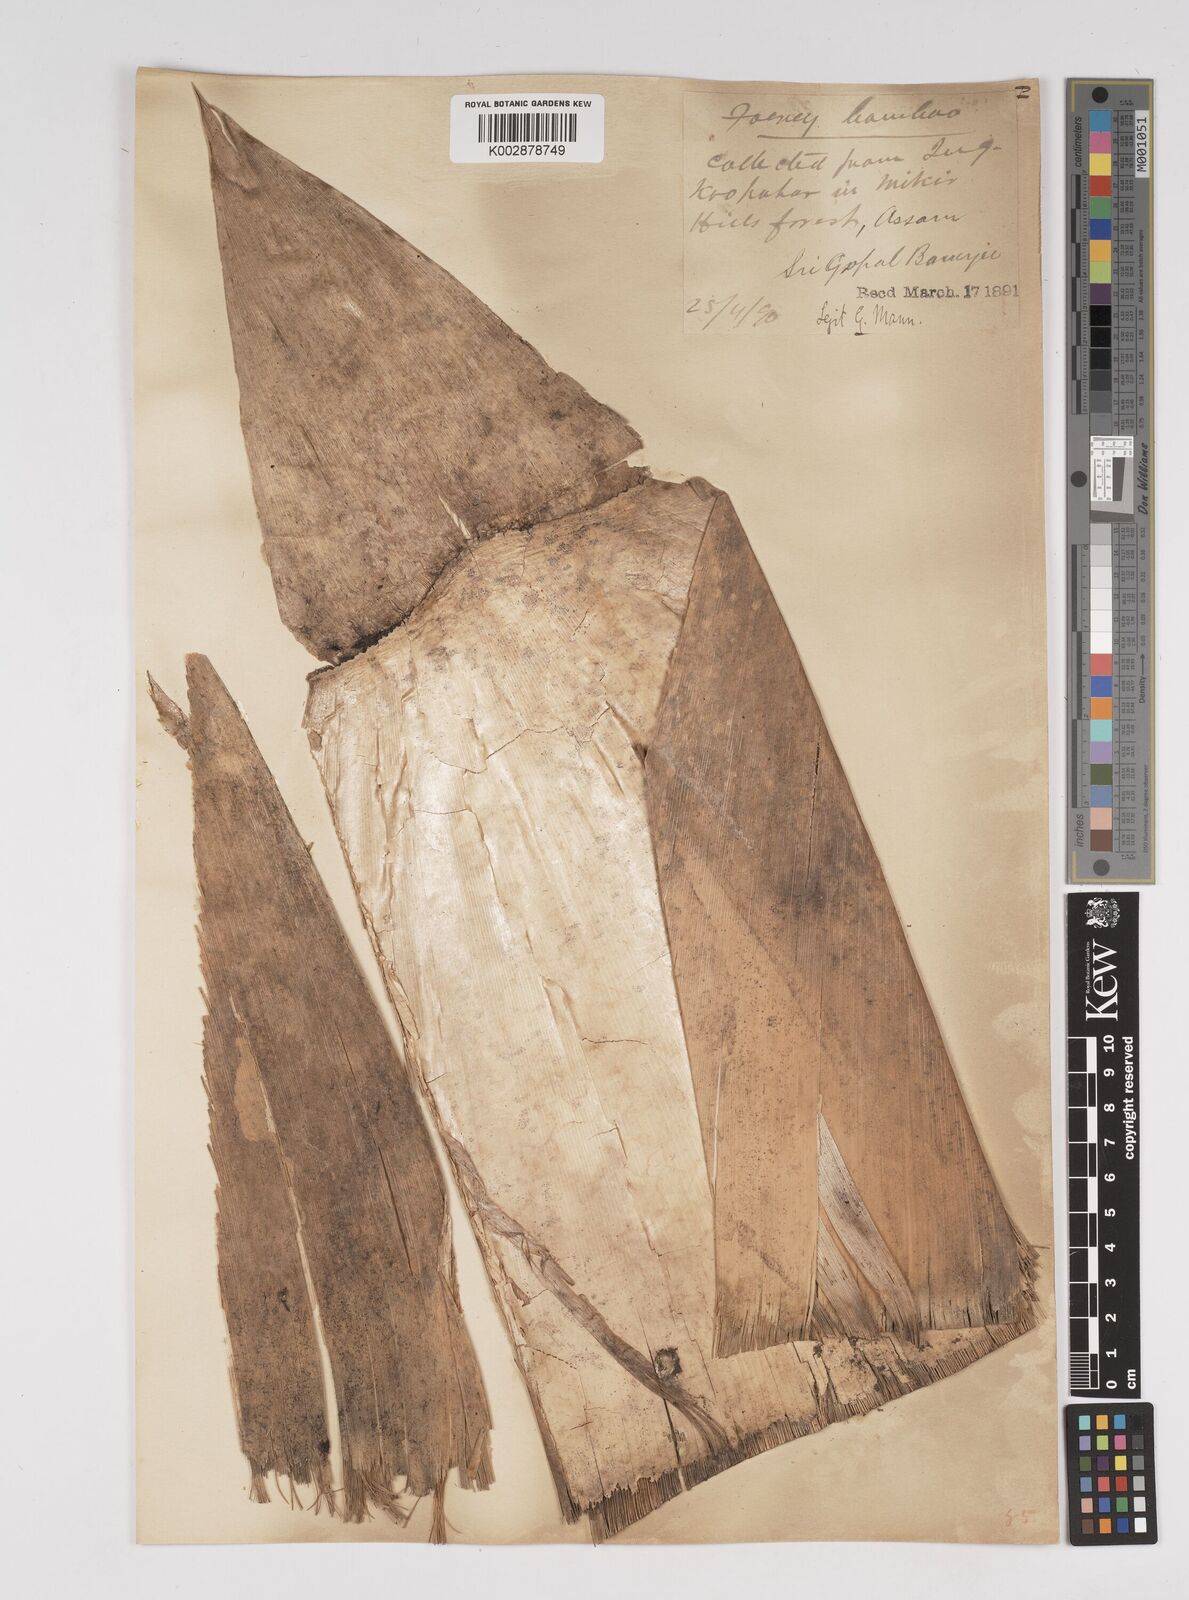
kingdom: Plantae
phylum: Tracheophyta
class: Liliopsida
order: Poales
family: Poaceae
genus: Dendrocalamus
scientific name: Dendrocalamus hamiltonii
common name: Tama bamboo
